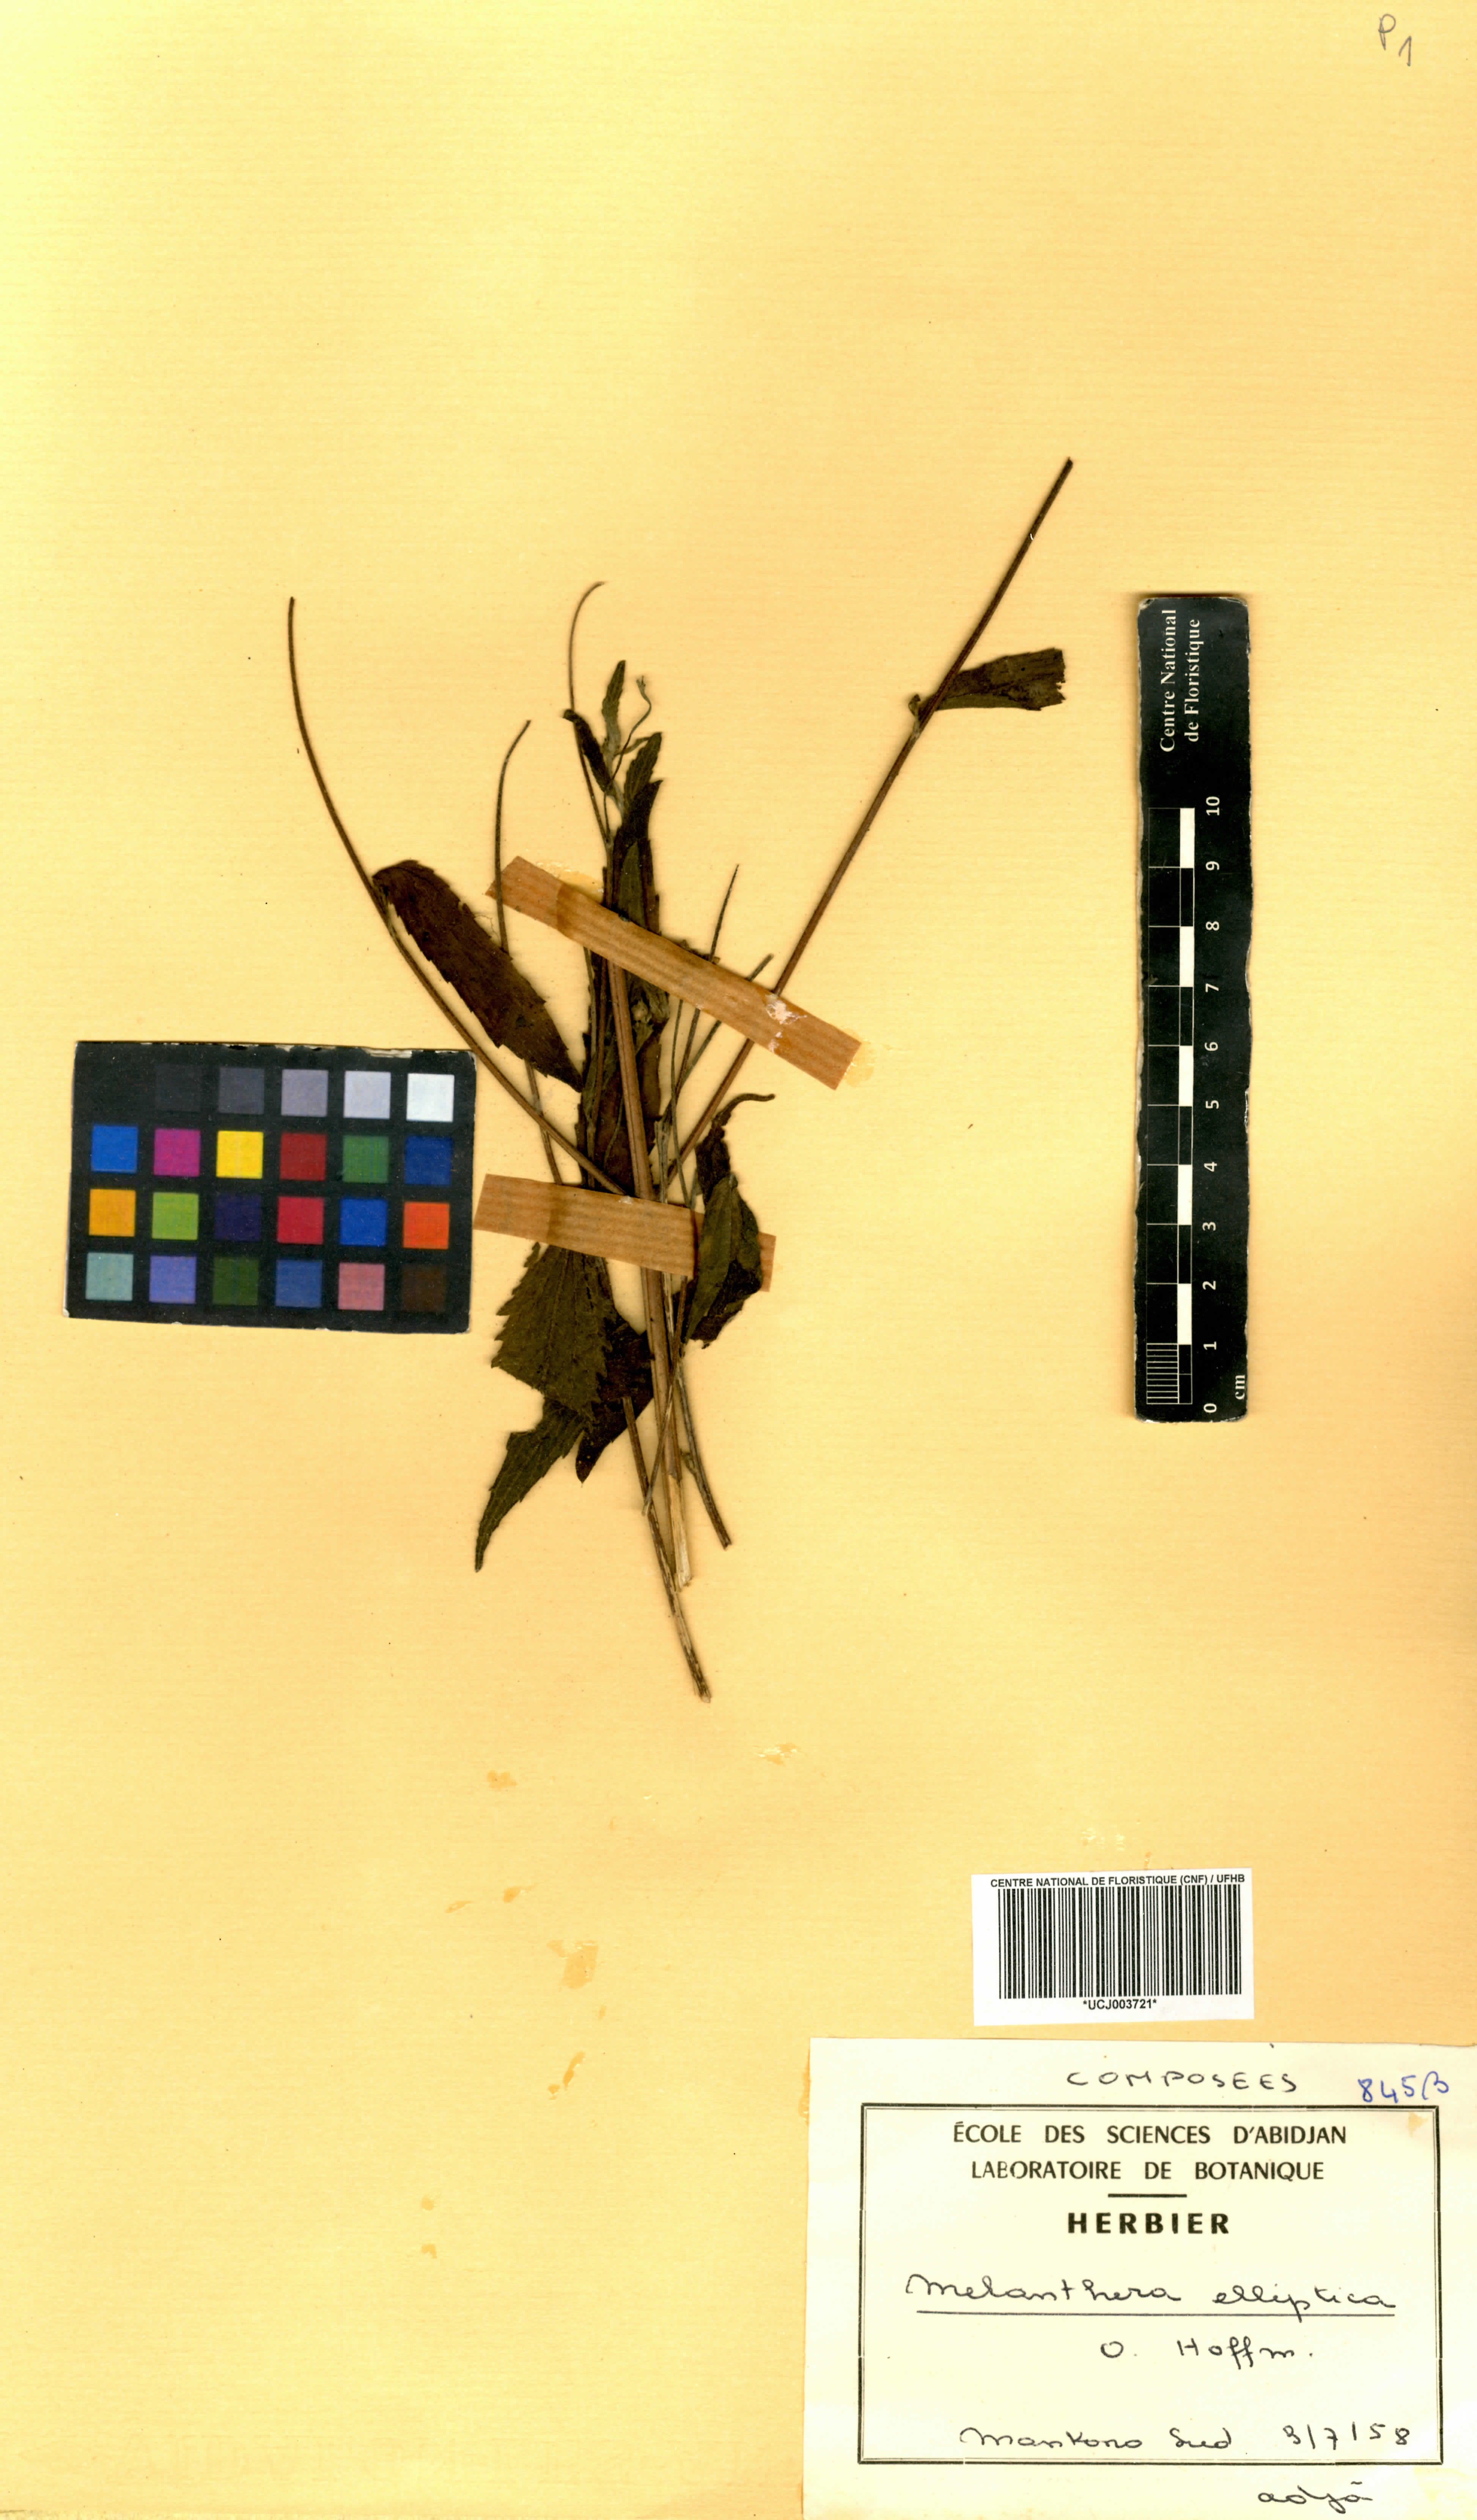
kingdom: Plantae
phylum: Tracheophyta
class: Magnoliopsida
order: Asterales
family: Asteraceae
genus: Lipotriche
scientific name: Lipotriche elliptica
